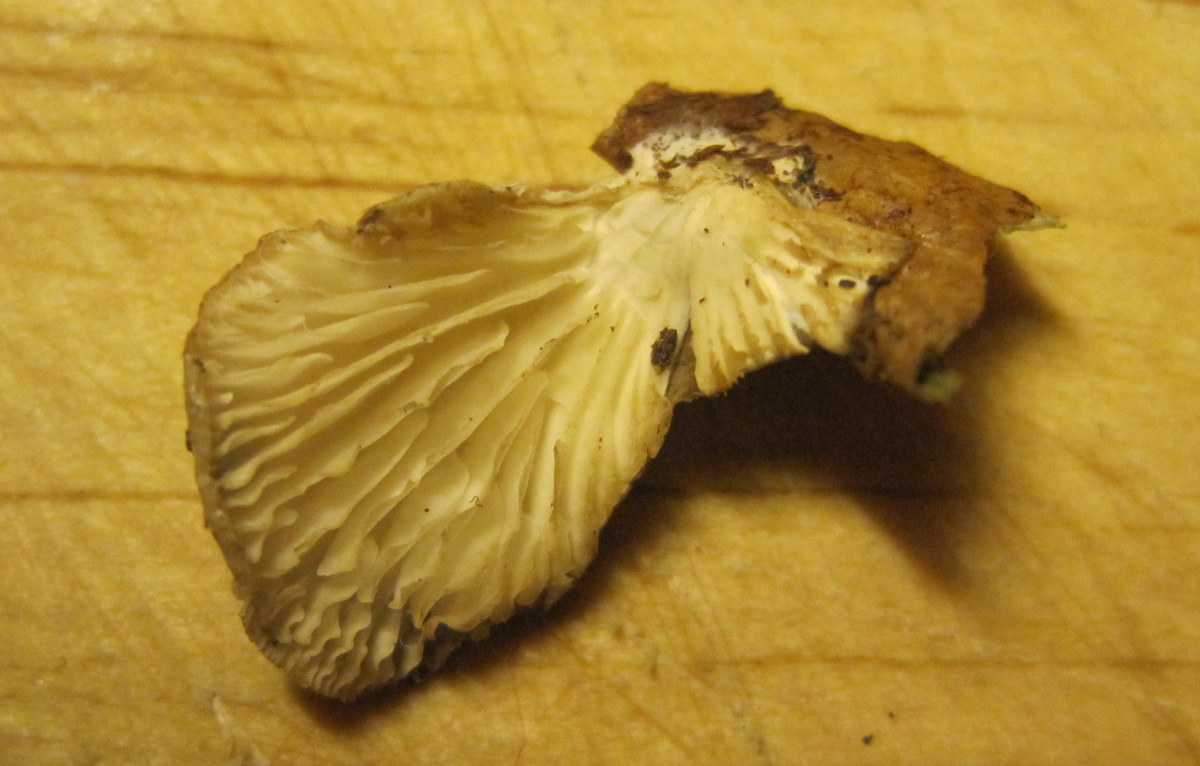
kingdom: Fungi
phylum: Basidiomycota
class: Agaricomycetes
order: Agaricales
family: Pleurotaceae
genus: Hohenbuehelia
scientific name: Hohenbuehelia fluxilis
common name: pile-filthat
